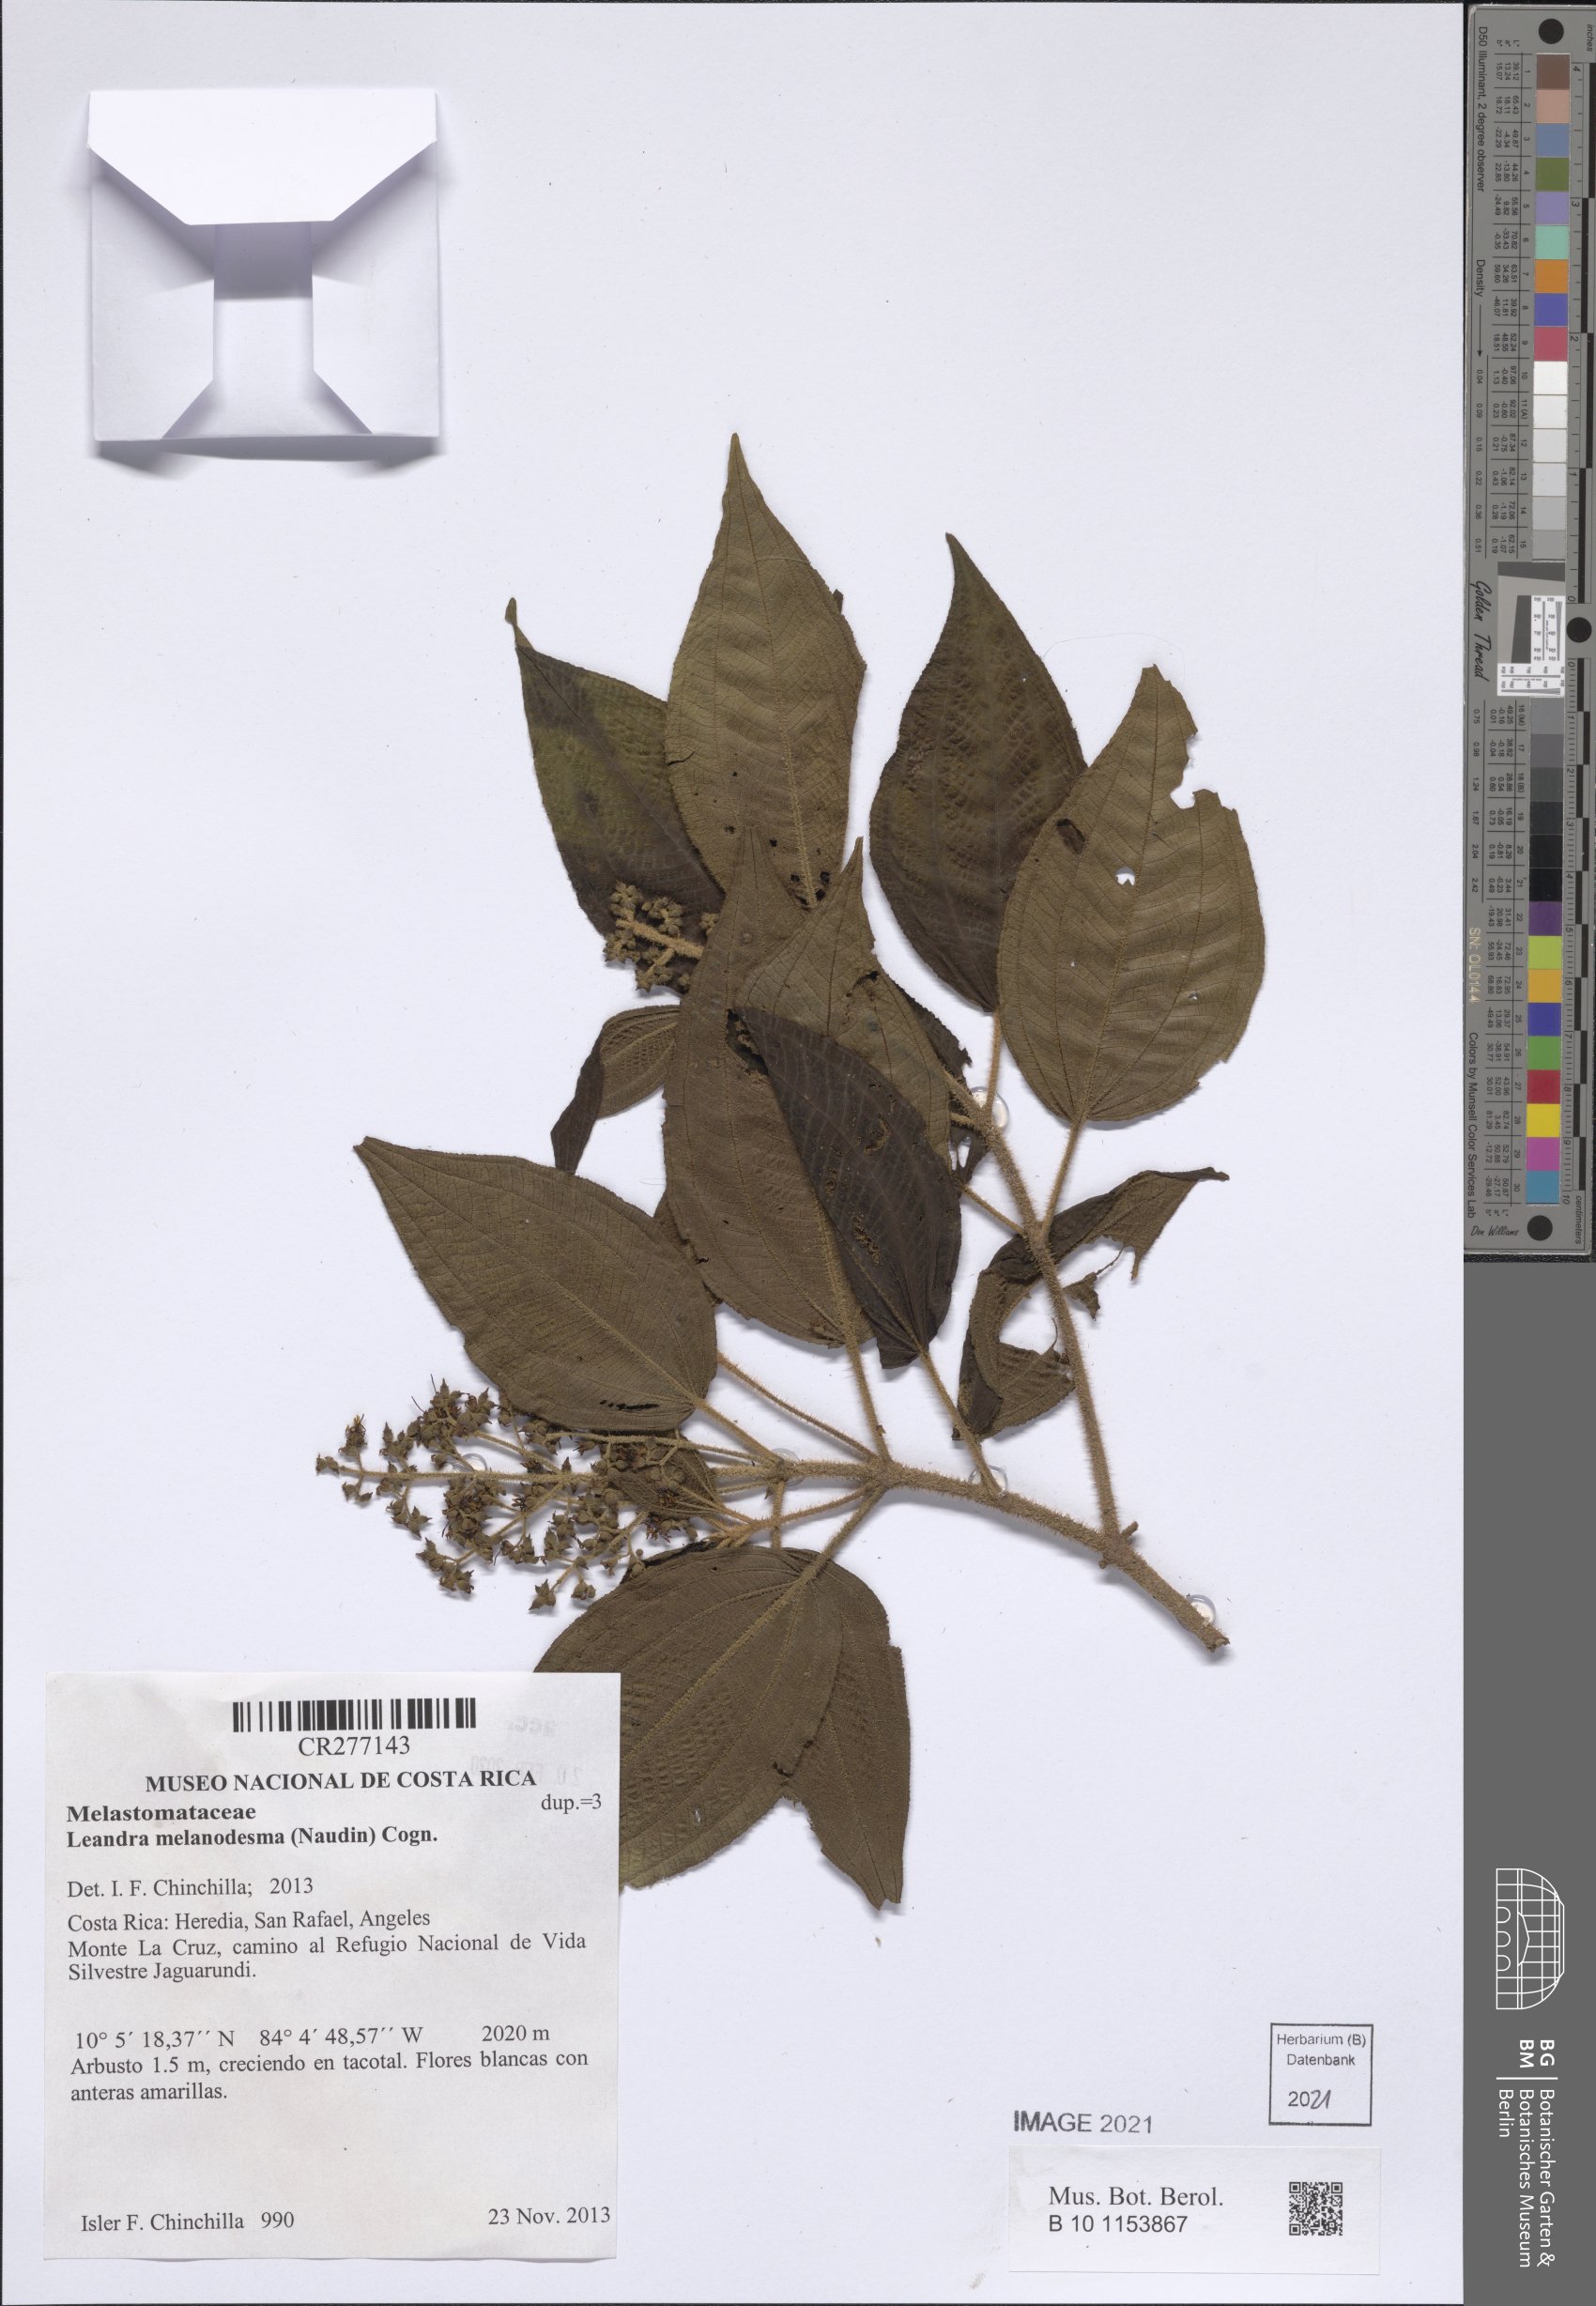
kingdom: Plantae
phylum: Tracheophyta
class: Magnoliopsida
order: Myrtales
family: Melastomataceae
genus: Miconia
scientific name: Miconia melanodesma
